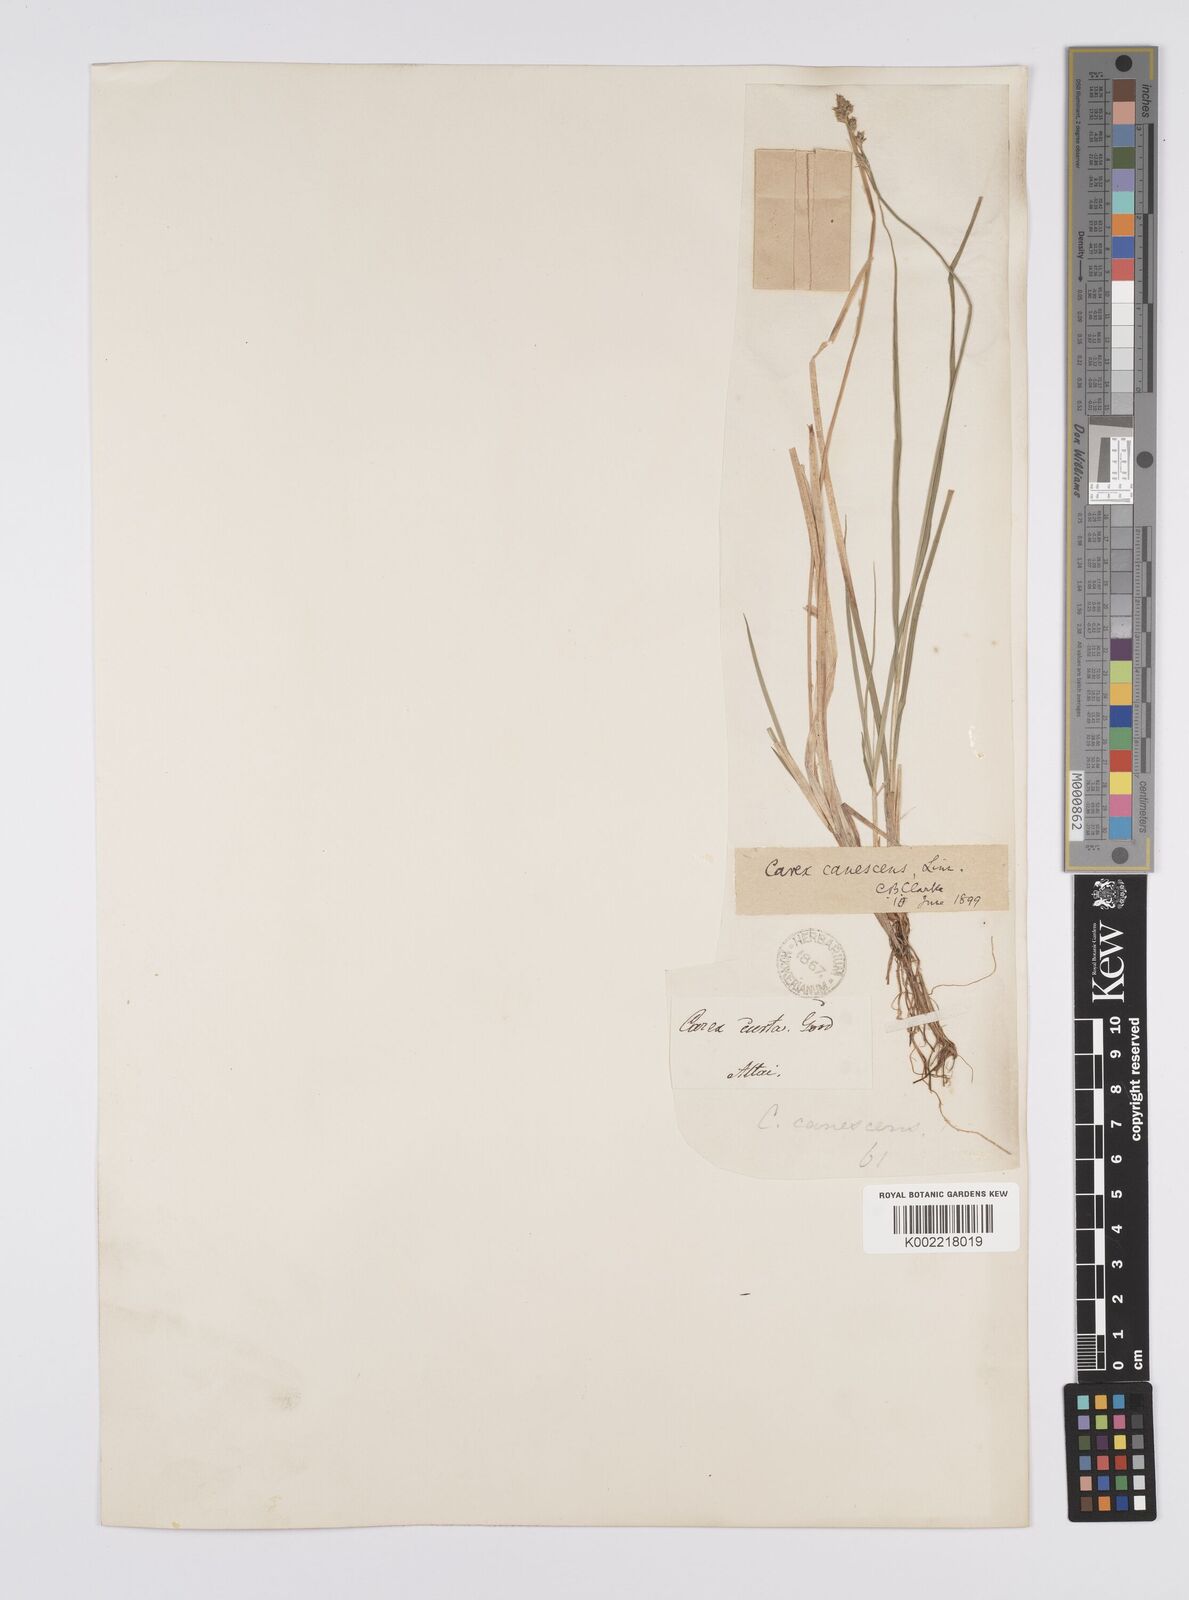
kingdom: Plantae
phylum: Tracheophyta
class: Liliopsida
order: Poales
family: Cyperaceae
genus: Carex
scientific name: Carex canescens
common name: White sedge
